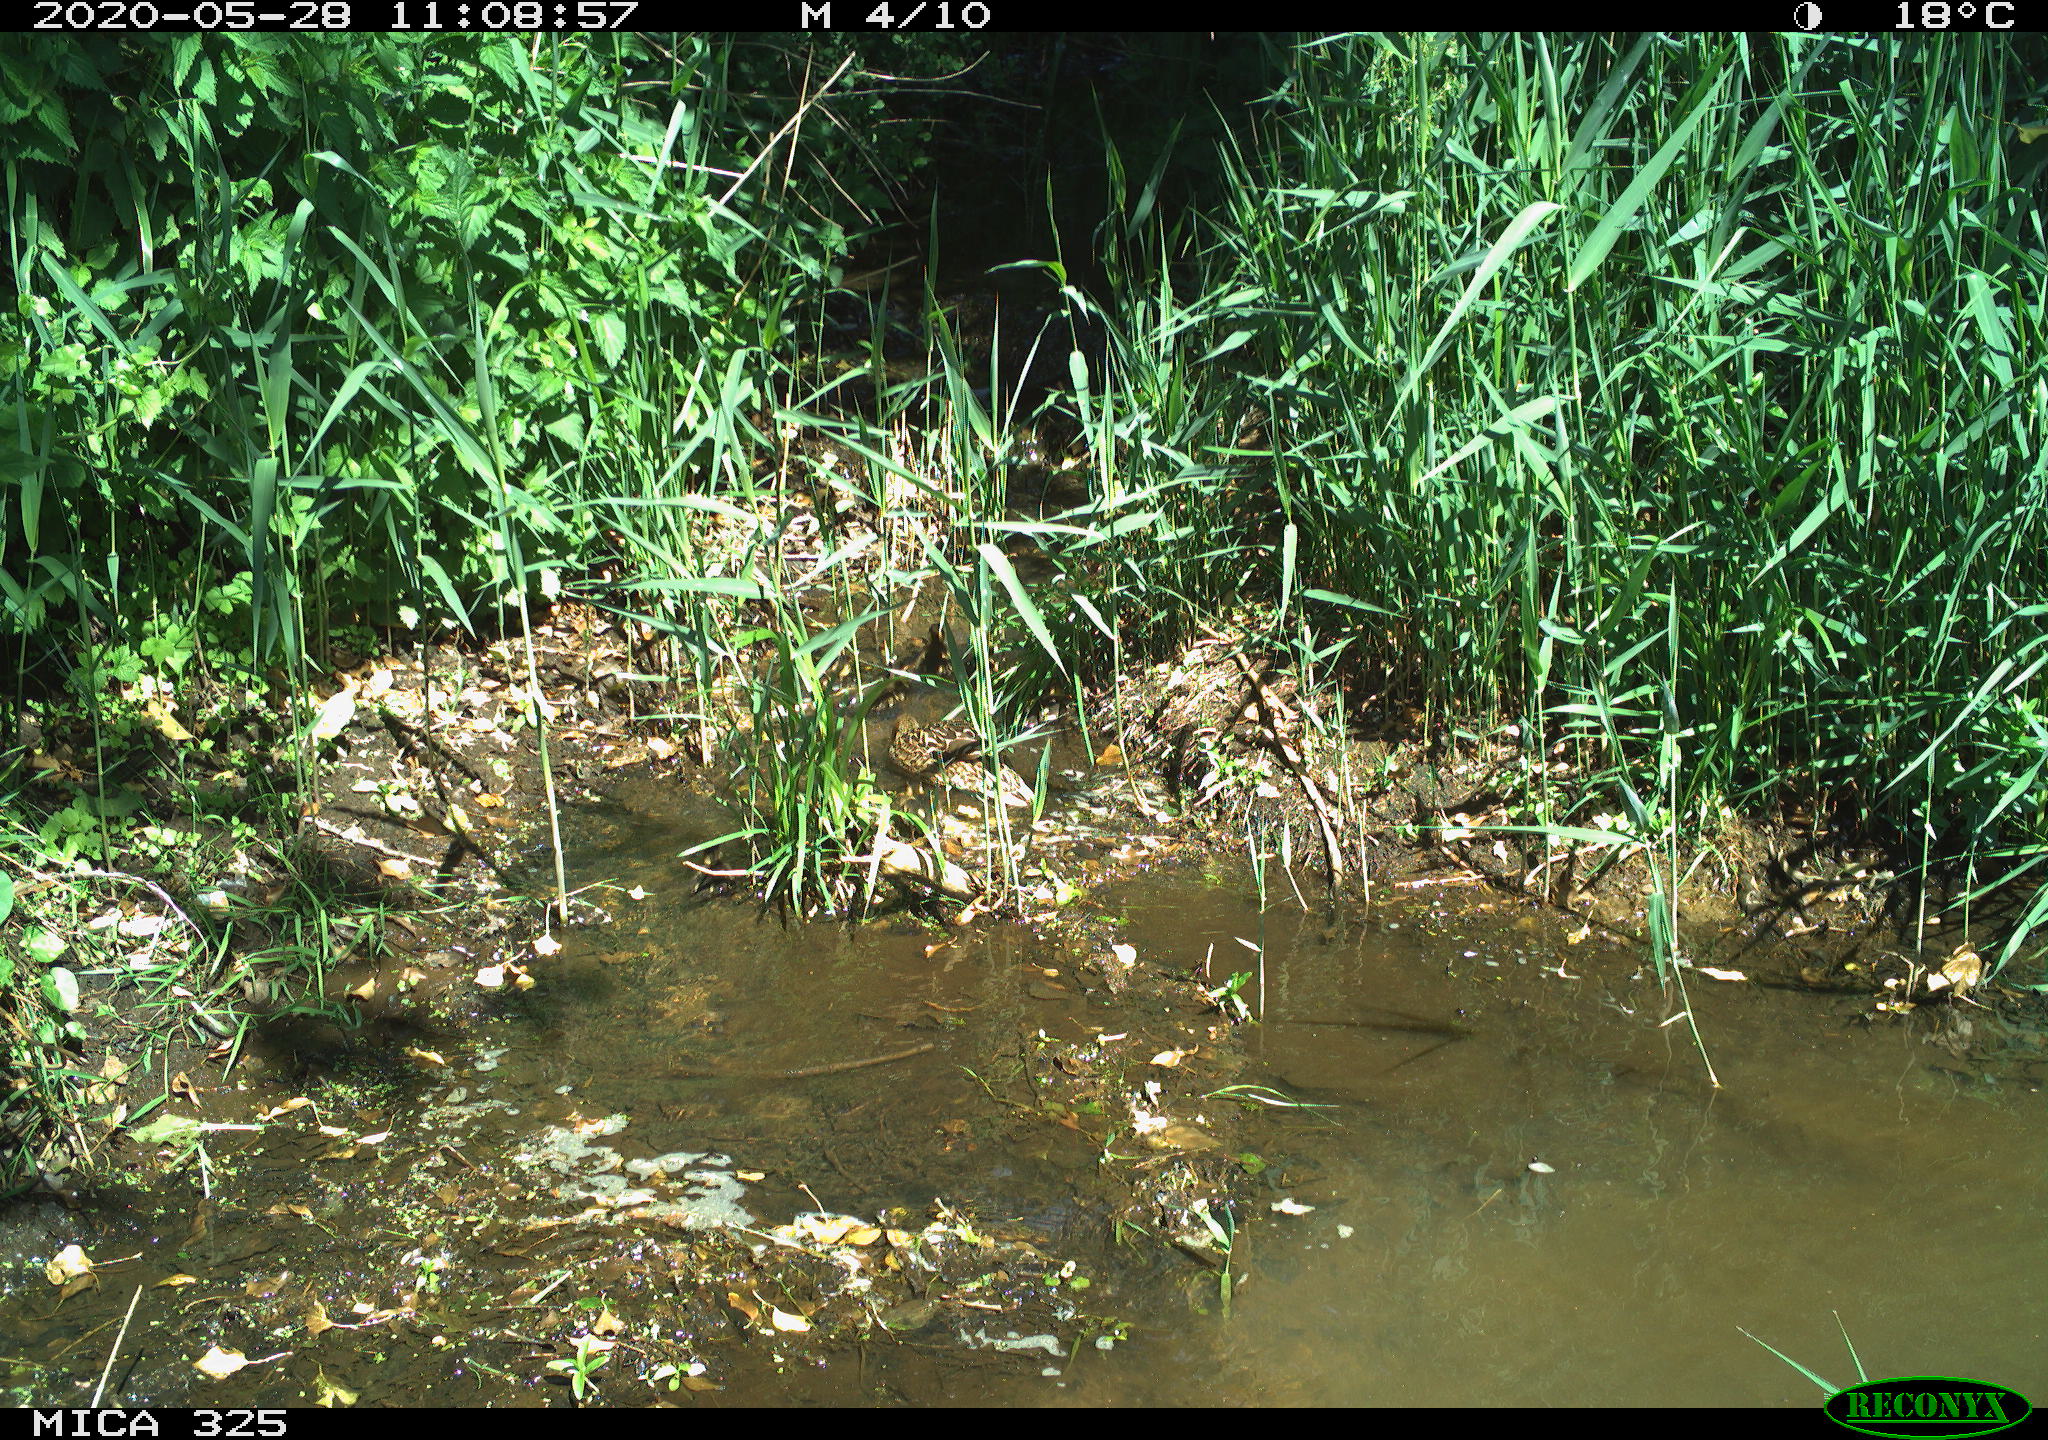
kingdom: Animalia
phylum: Chordata
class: Aves
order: Anseriformes
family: Anatidae
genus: Anas
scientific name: Anas platyrhynchos
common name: Mallard
